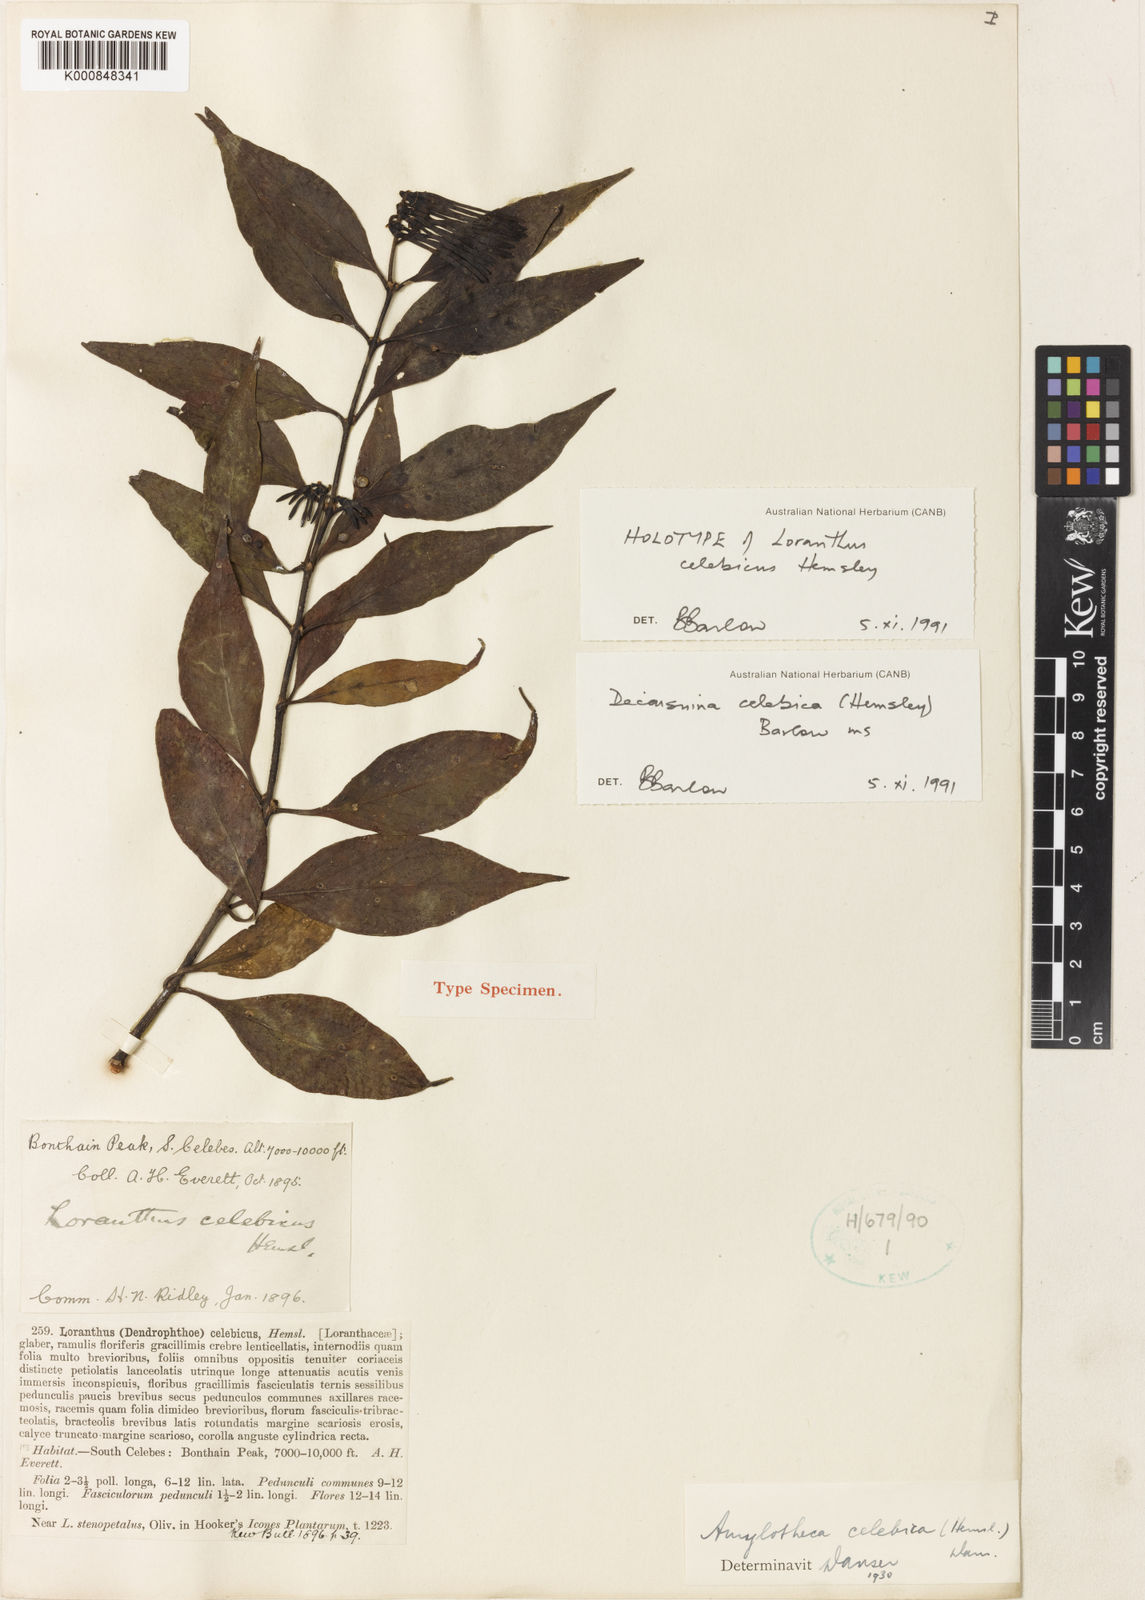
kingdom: Plantae
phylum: Tracheophyta
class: Magnoliopsida
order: Santalales
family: Loranthaceae
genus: Decaisnina
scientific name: Decaisnina celebica
